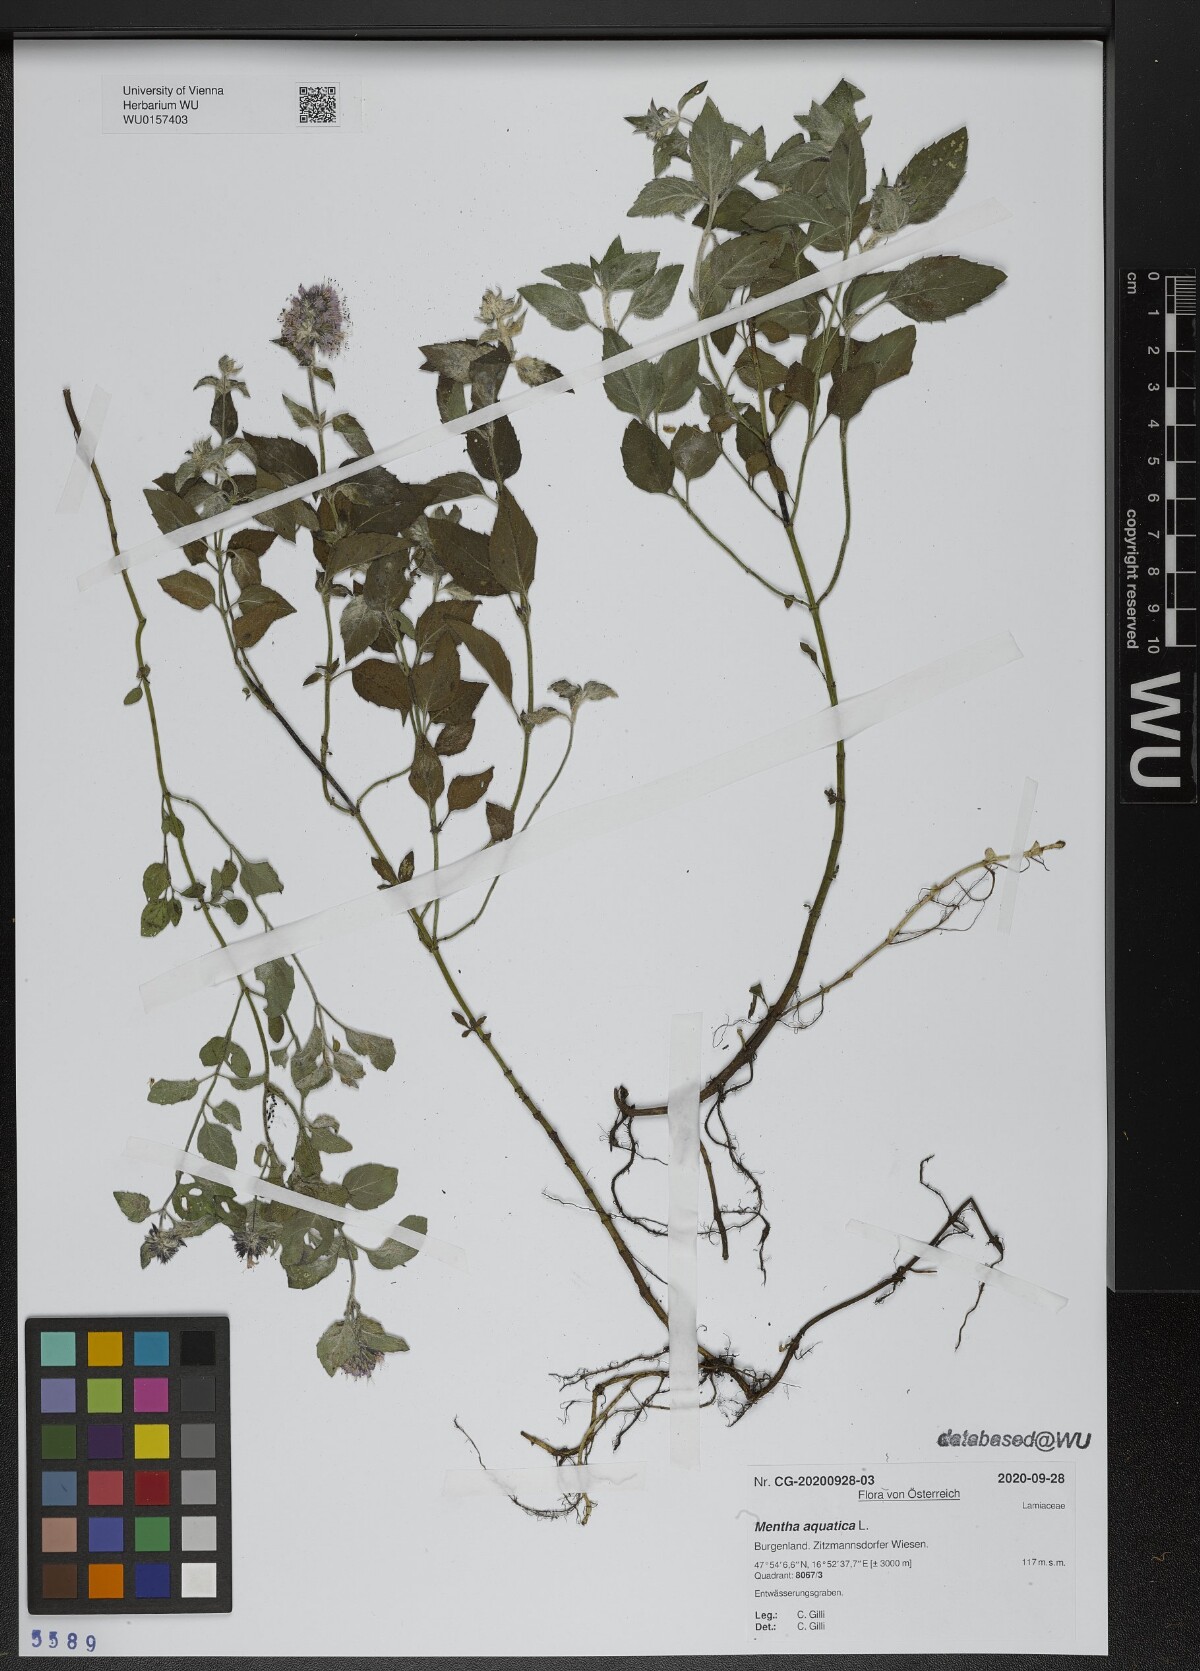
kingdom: Plantae
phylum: Tracheophyta
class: Magnoliopsida
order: Lamiales
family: Lamiaceae
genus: Mentha
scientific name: Mentha aquatica
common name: Water mint
